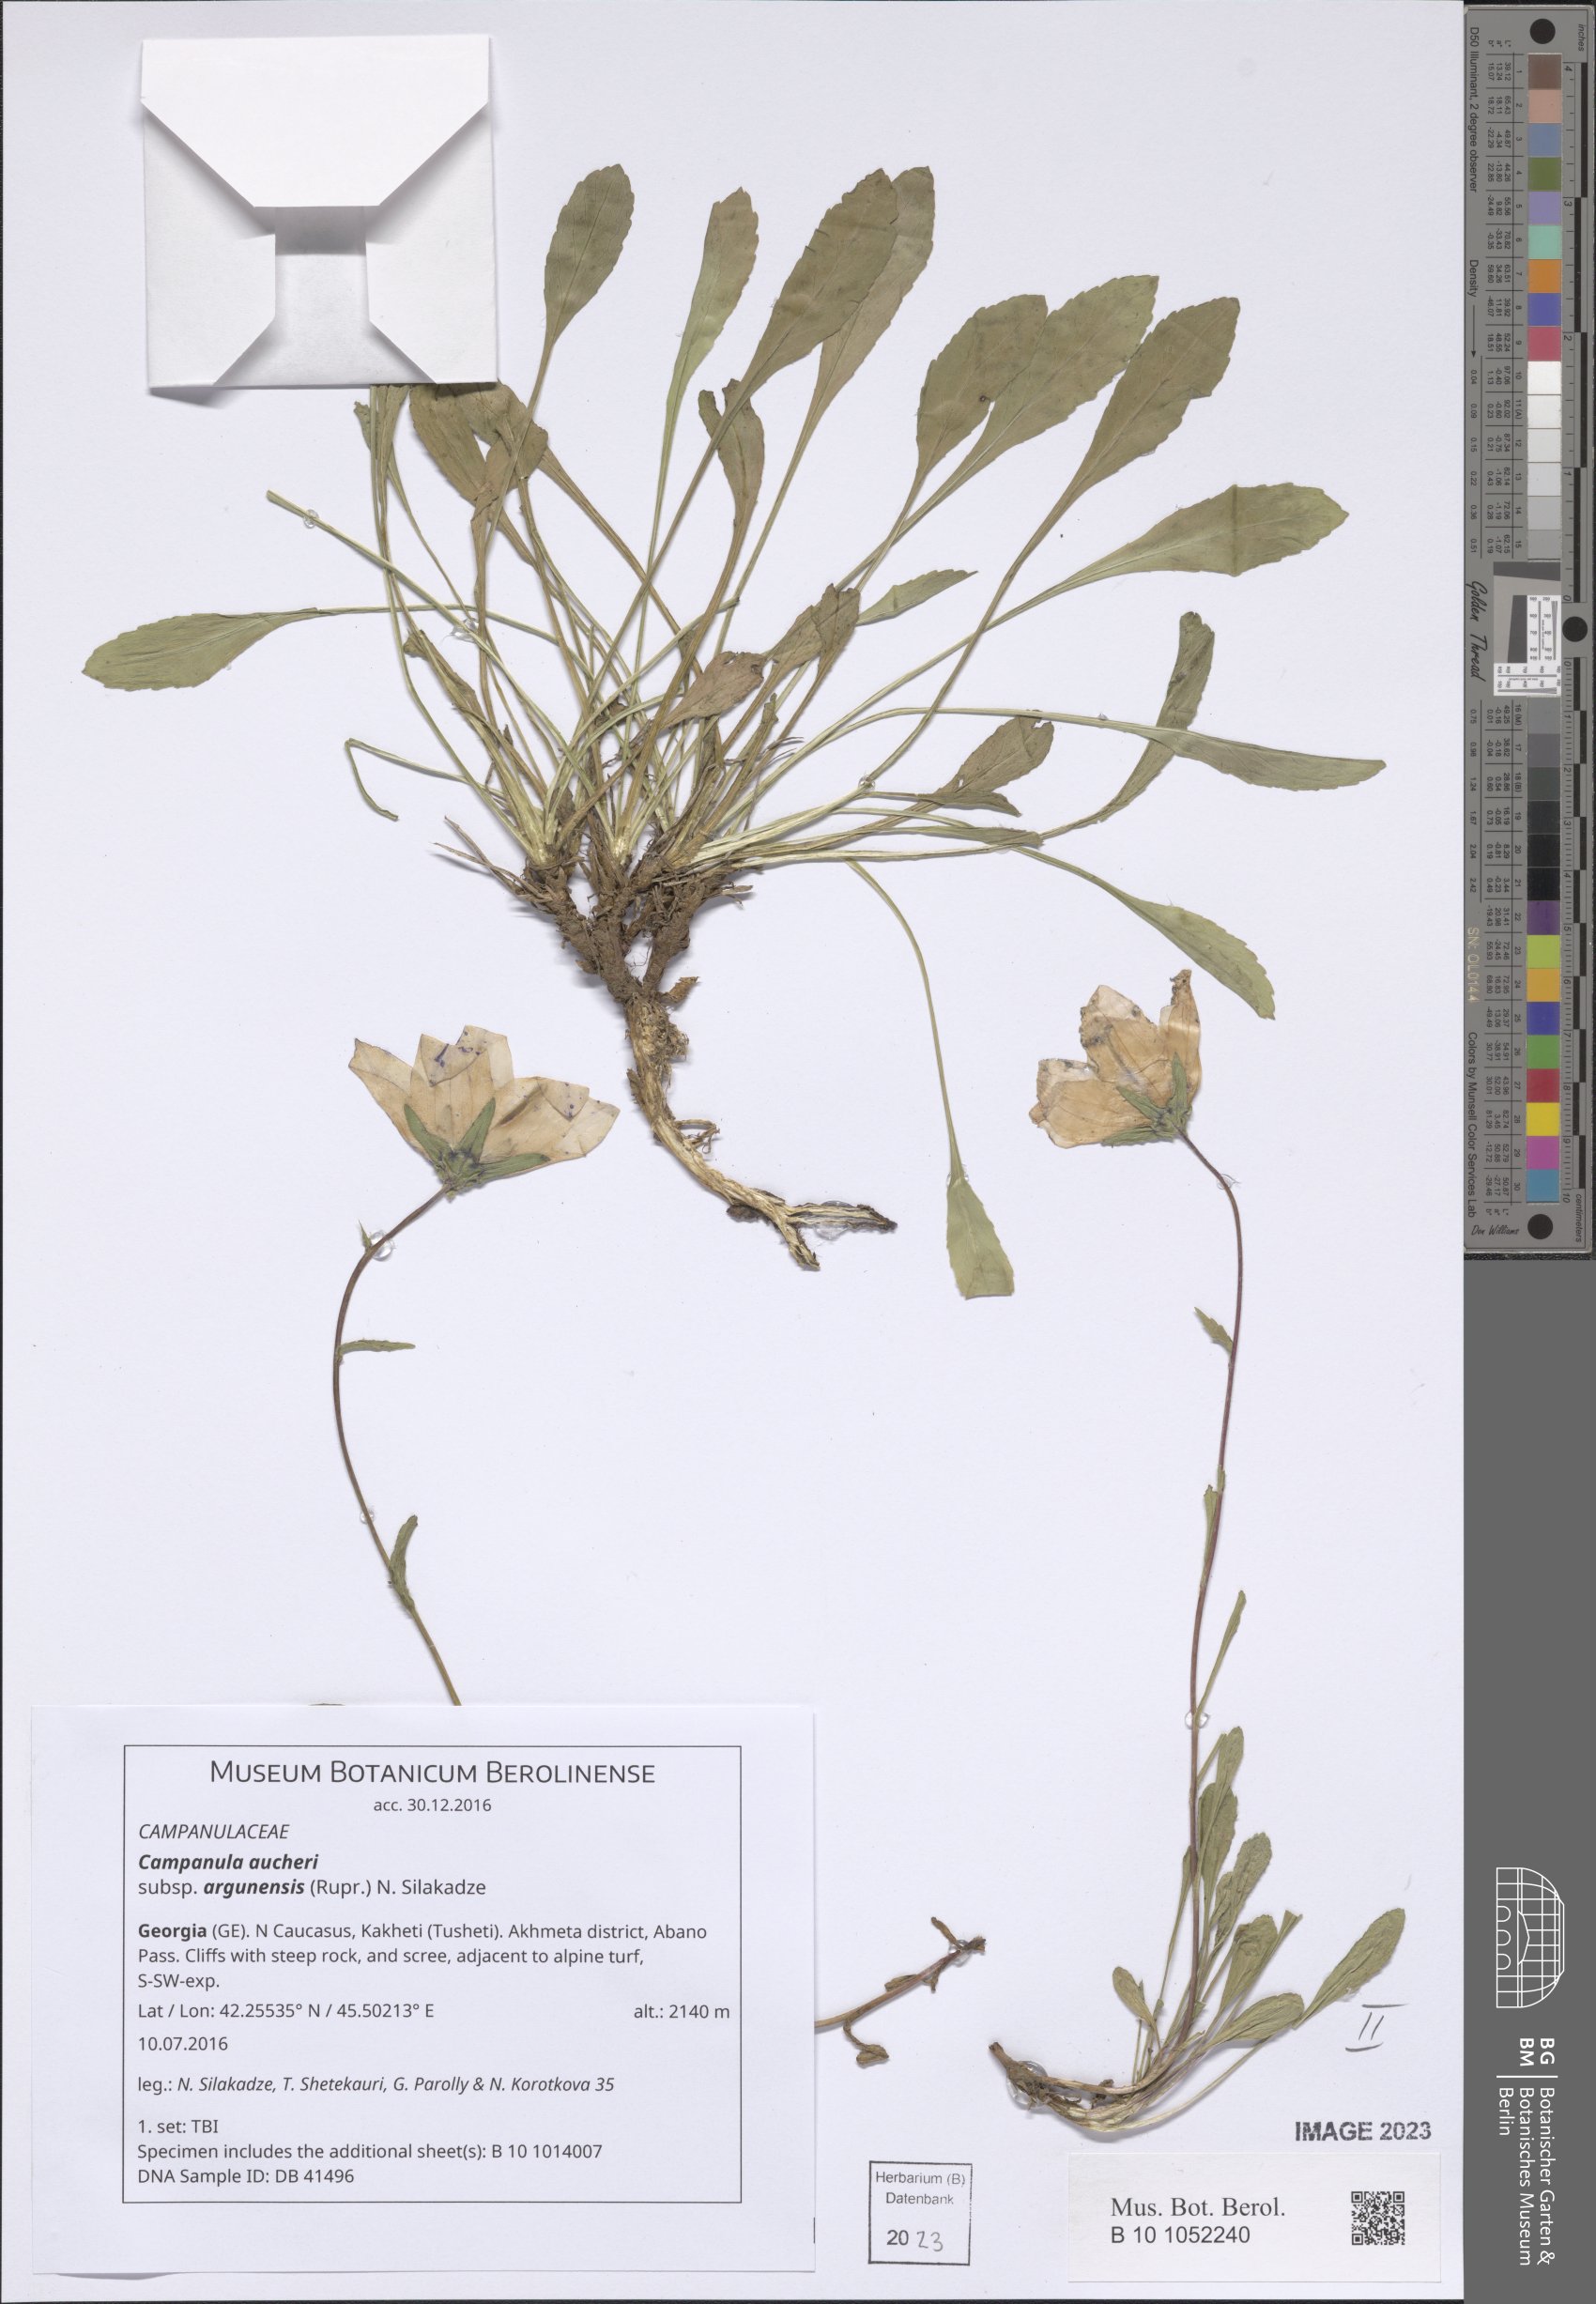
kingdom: Plantae
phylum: Tracheophyta
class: Magnoliopsida
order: Asterales
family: Campanulaceae
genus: Campanula
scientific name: Campanula saxifraga
